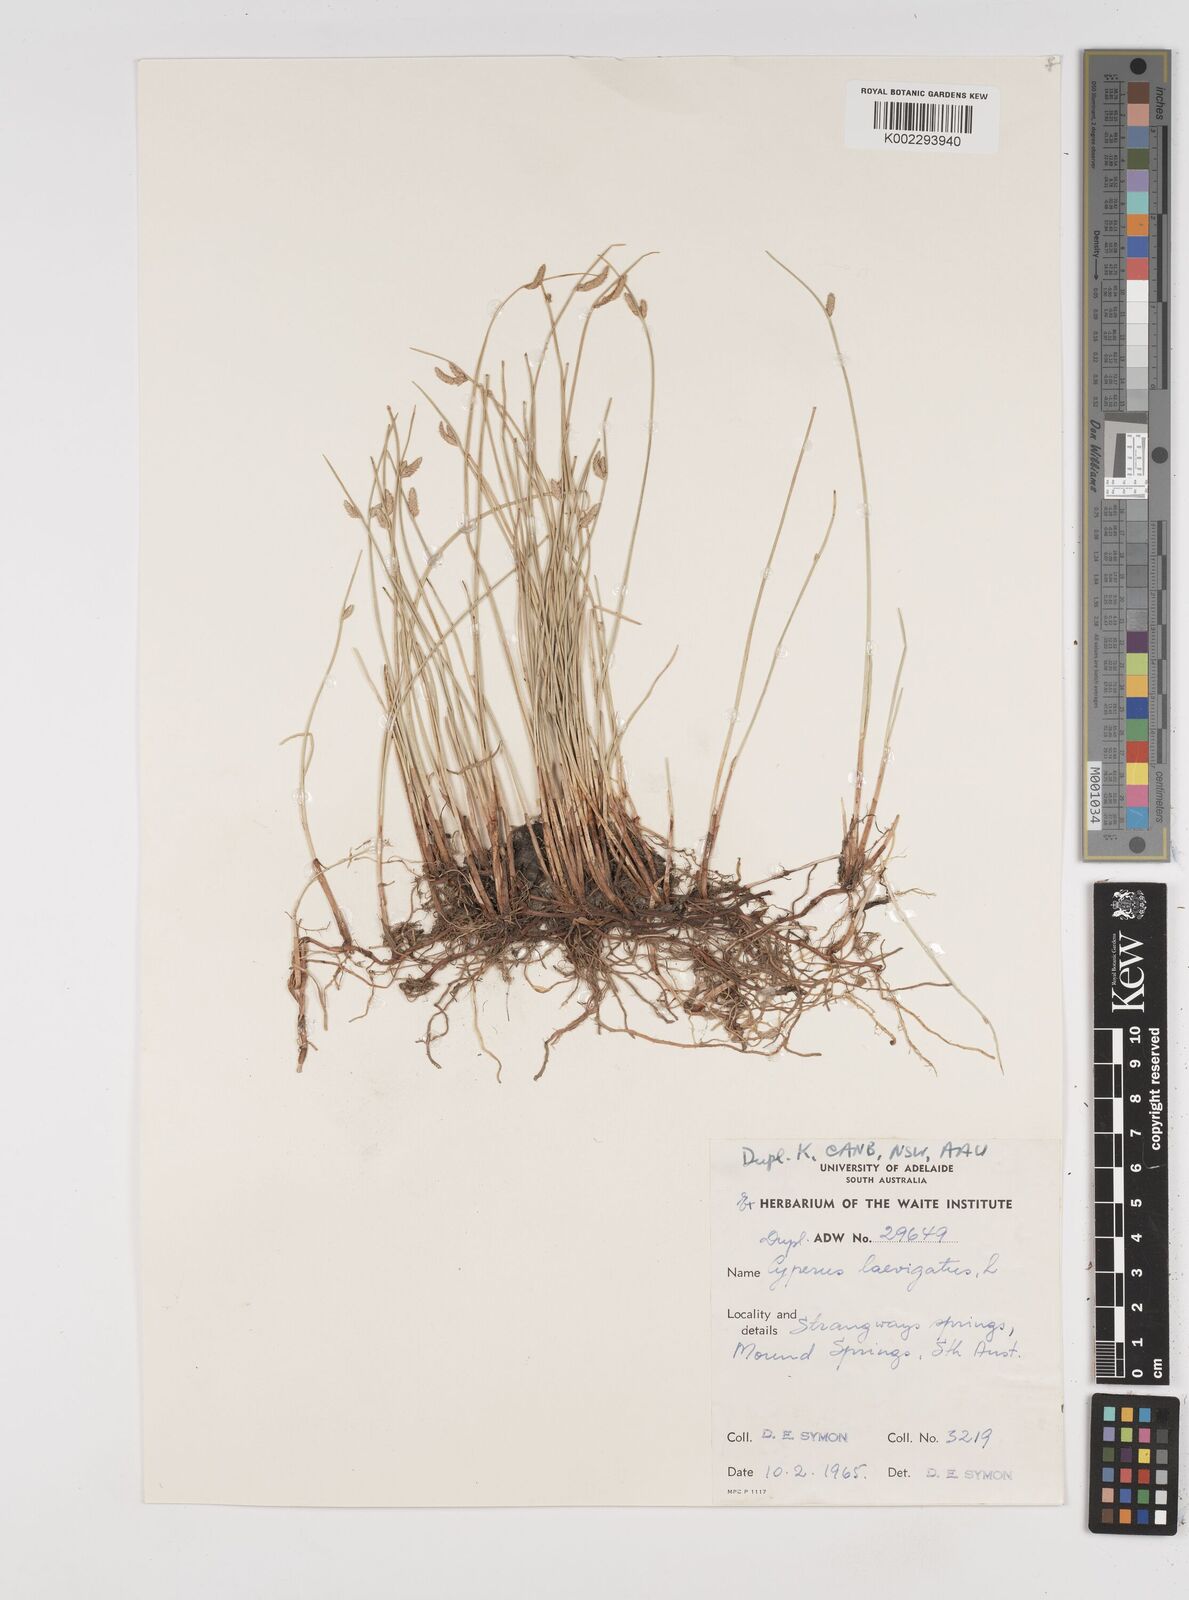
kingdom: Plantae
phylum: Tracheophyta
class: Liliopsida
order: Poales
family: Cyperaceae
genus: Cyperus
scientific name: Cyperus laevigatus
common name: Smooth flat sedge
